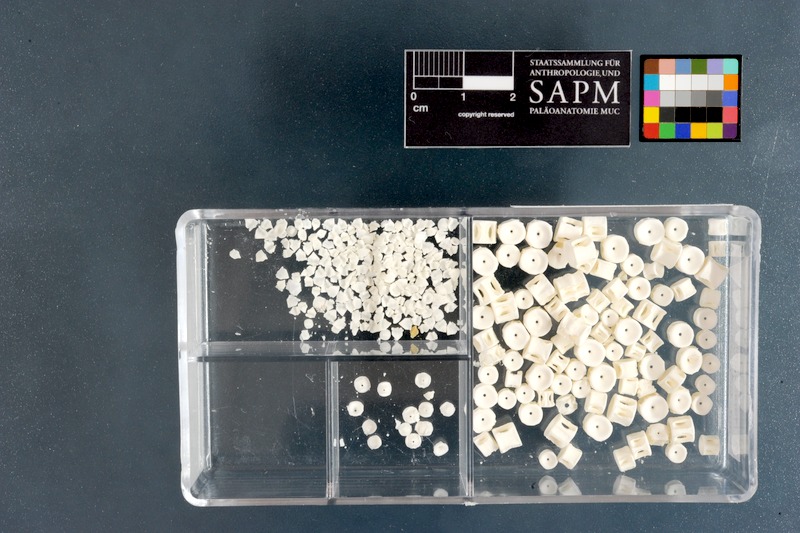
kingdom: Animalia
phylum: Chordata
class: Elasmobranchii
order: Carcharhiniformes
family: Scyliorhinidae
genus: Haploblepharus
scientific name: Haploblepharus fuscus
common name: Brown shyshark
